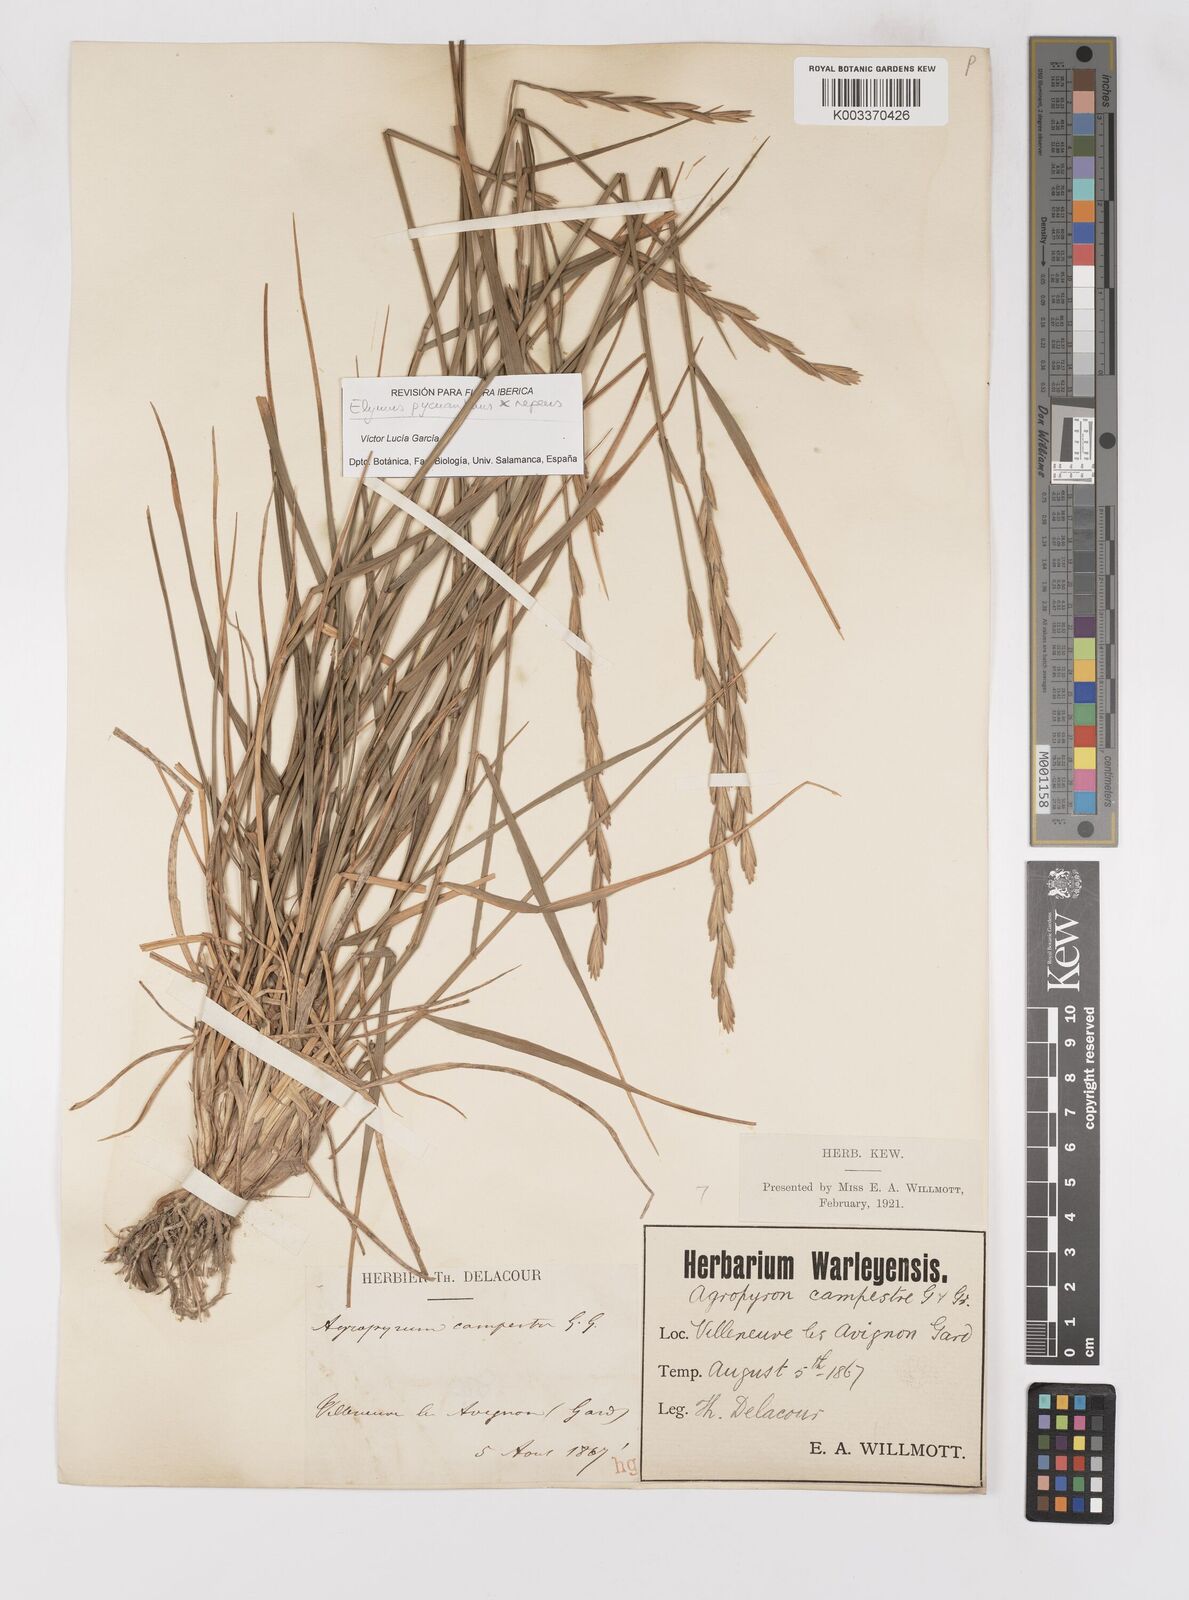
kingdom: Plantae
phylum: Tracheophyta
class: Liliopsida
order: Poales
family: Poaceae
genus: Elymus
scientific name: Elymus oliveri
